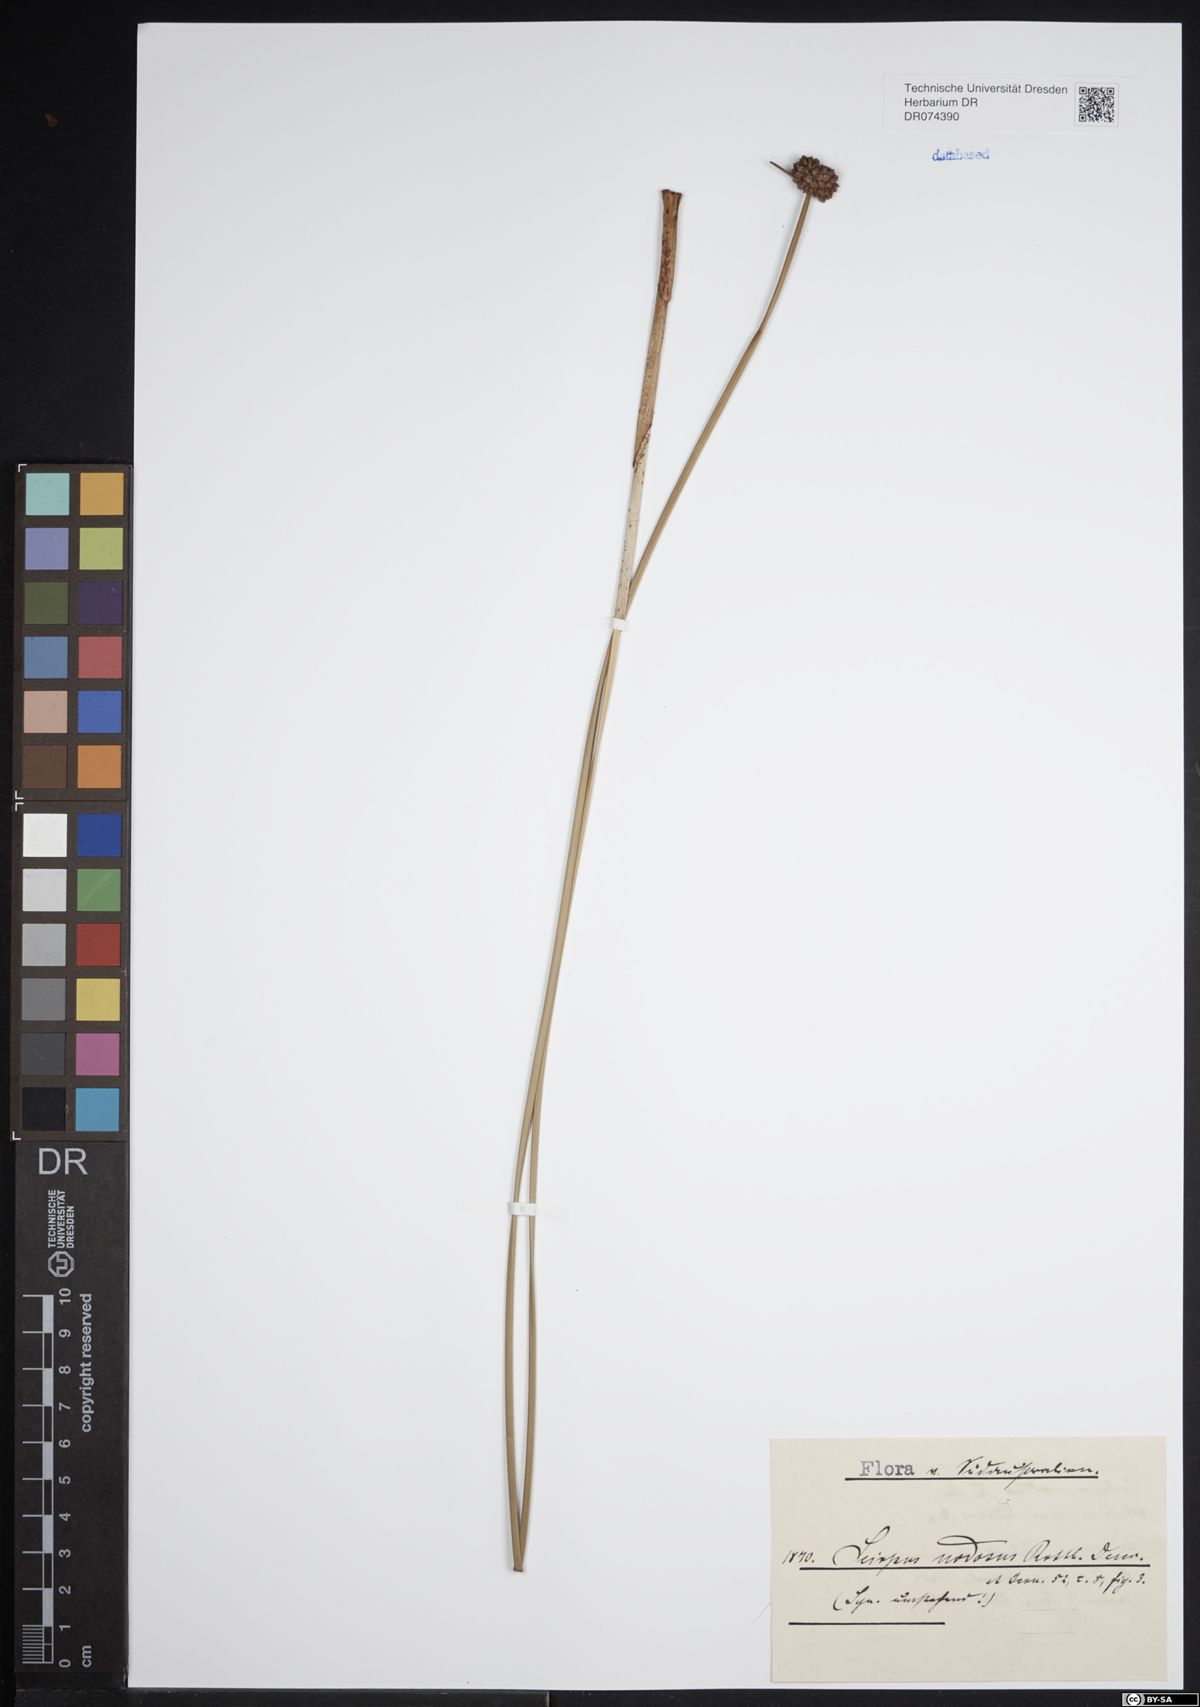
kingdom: Plantae
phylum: Tracheophyta
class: Liliopsida
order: Poales
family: Cyperaceae
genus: Ficinia
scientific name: Ficinia nodosa
